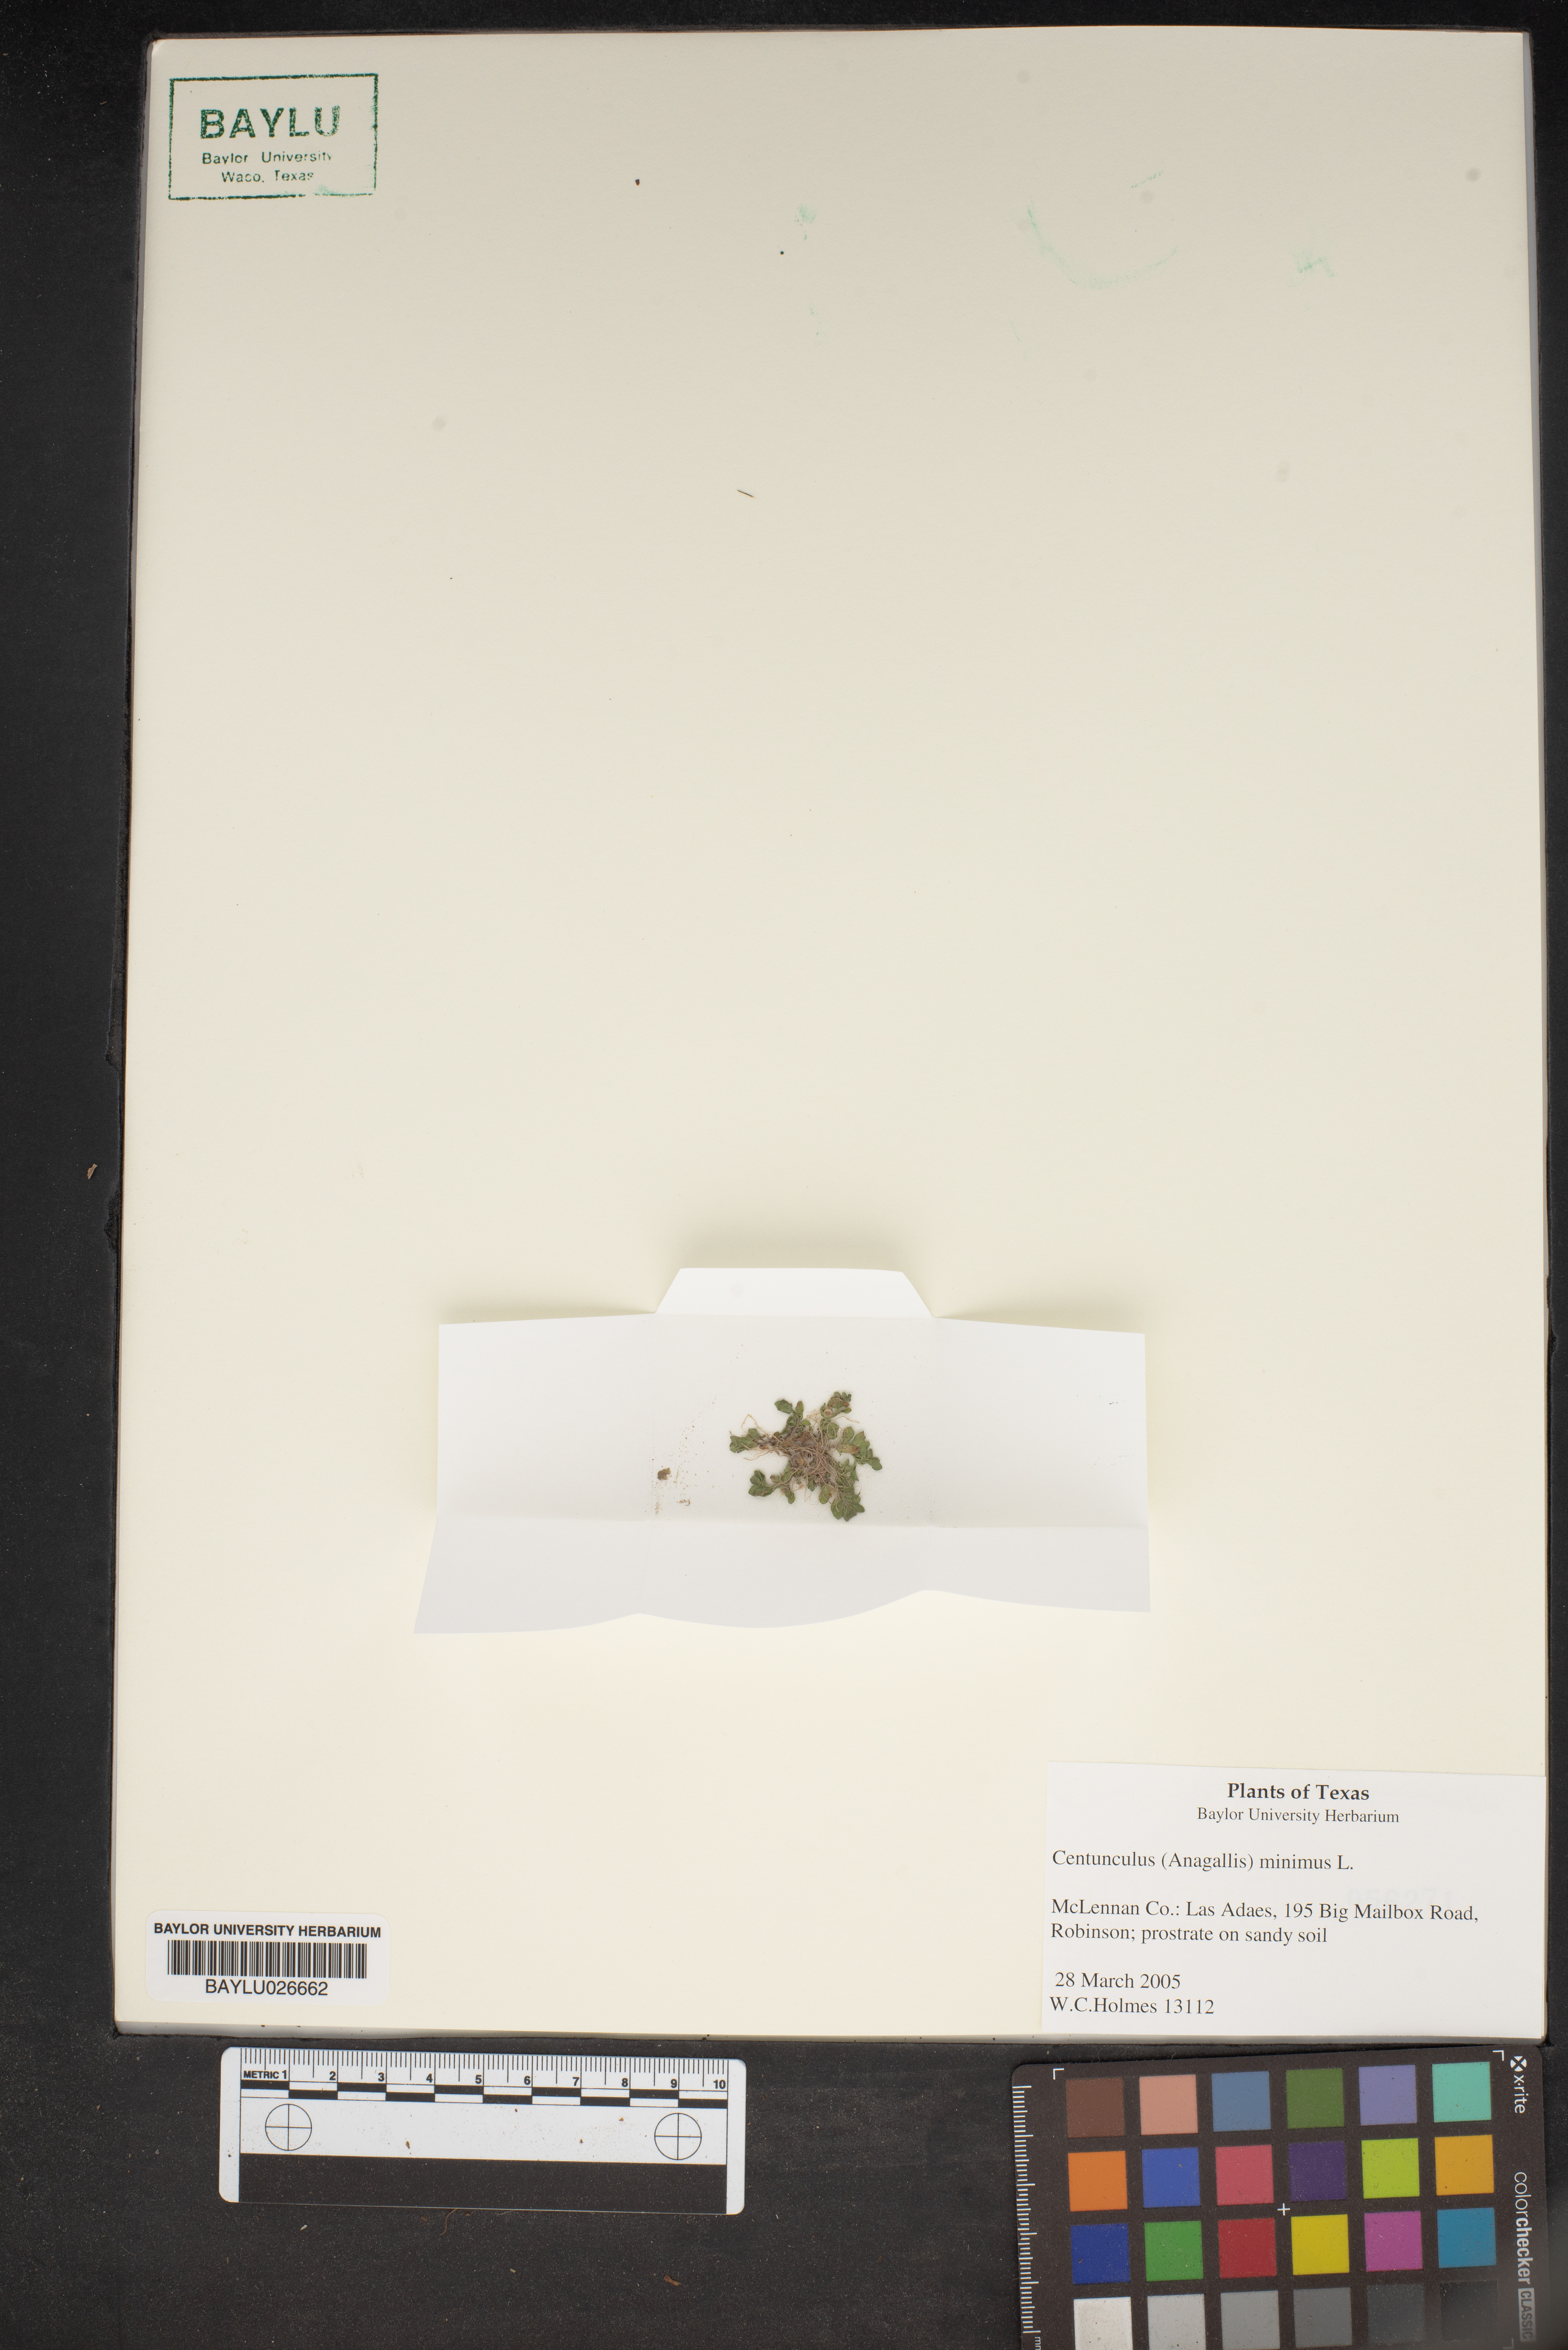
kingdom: Plantae
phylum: Tracheophyta
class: Magnoliopsida
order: Ericales
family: Primulaceae
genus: Lysimachia
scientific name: Lysimachia minima
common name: Chaffweed
